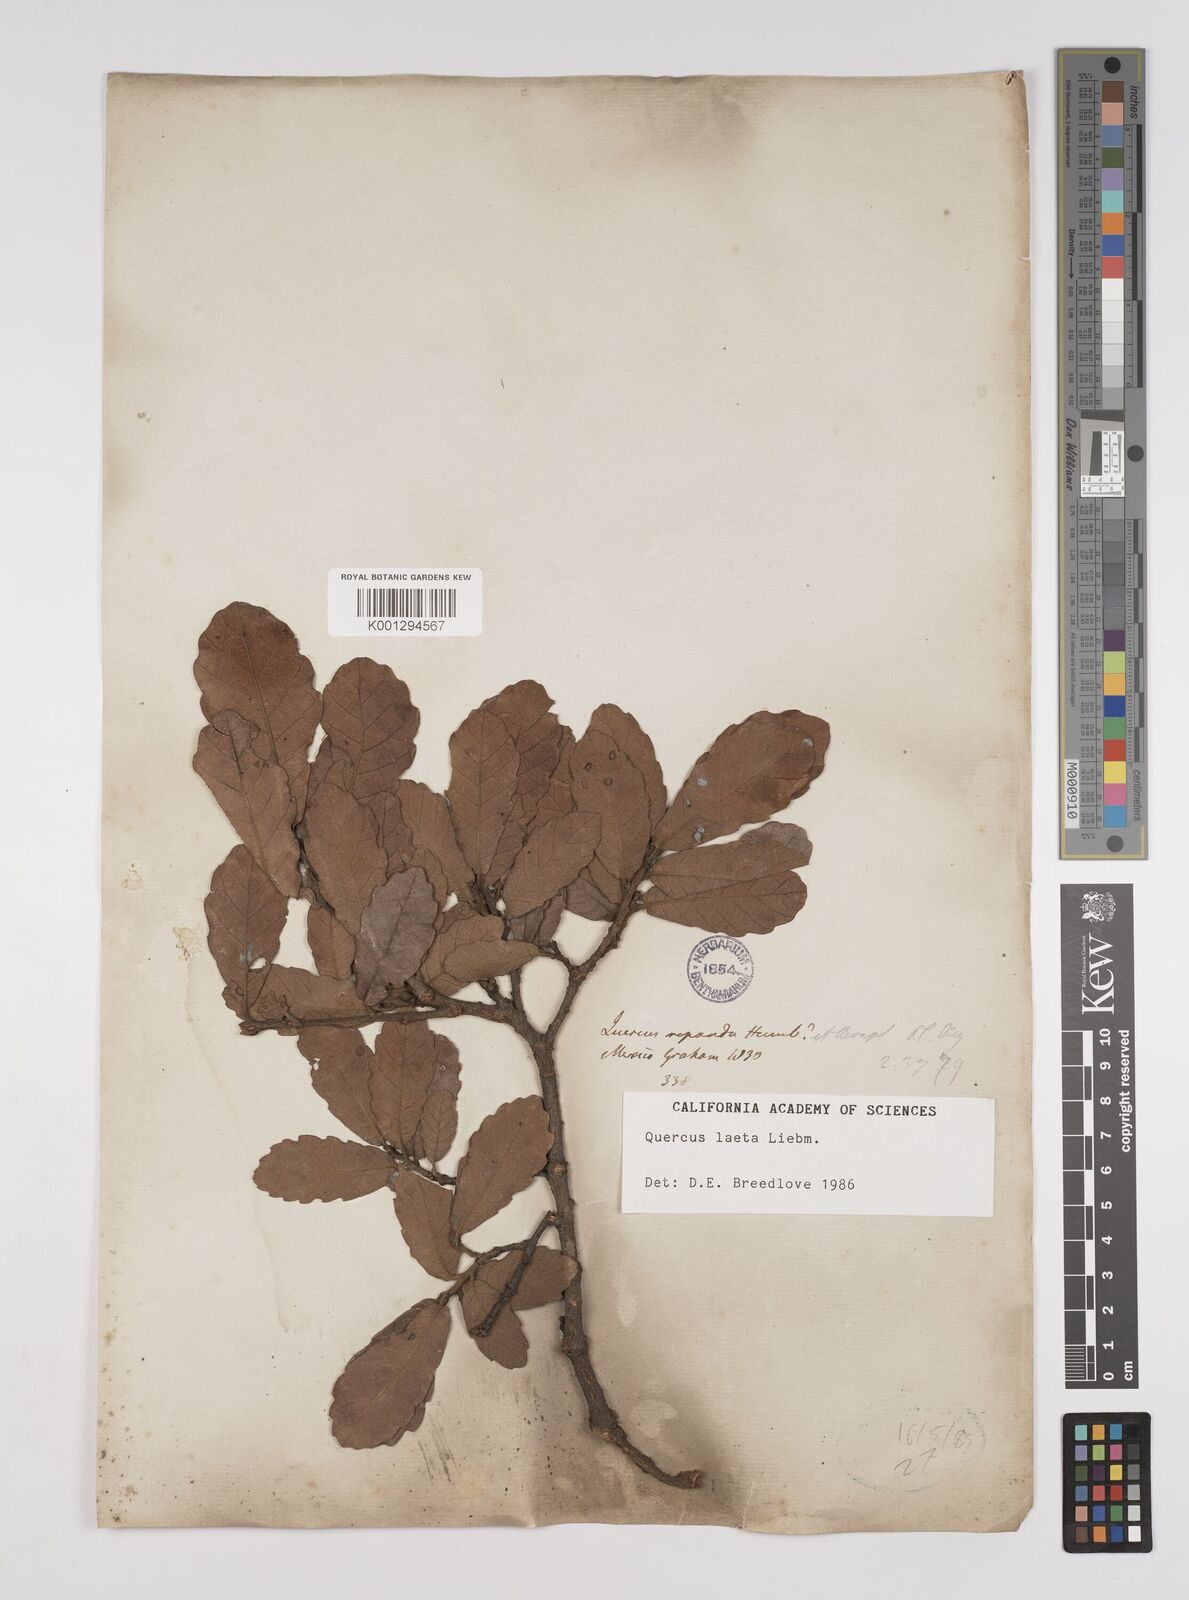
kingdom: Plantae
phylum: Tracheophyta
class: Magnoliopsida
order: Fagales
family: Fagaceae
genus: Quercus
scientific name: Quercus laeta
